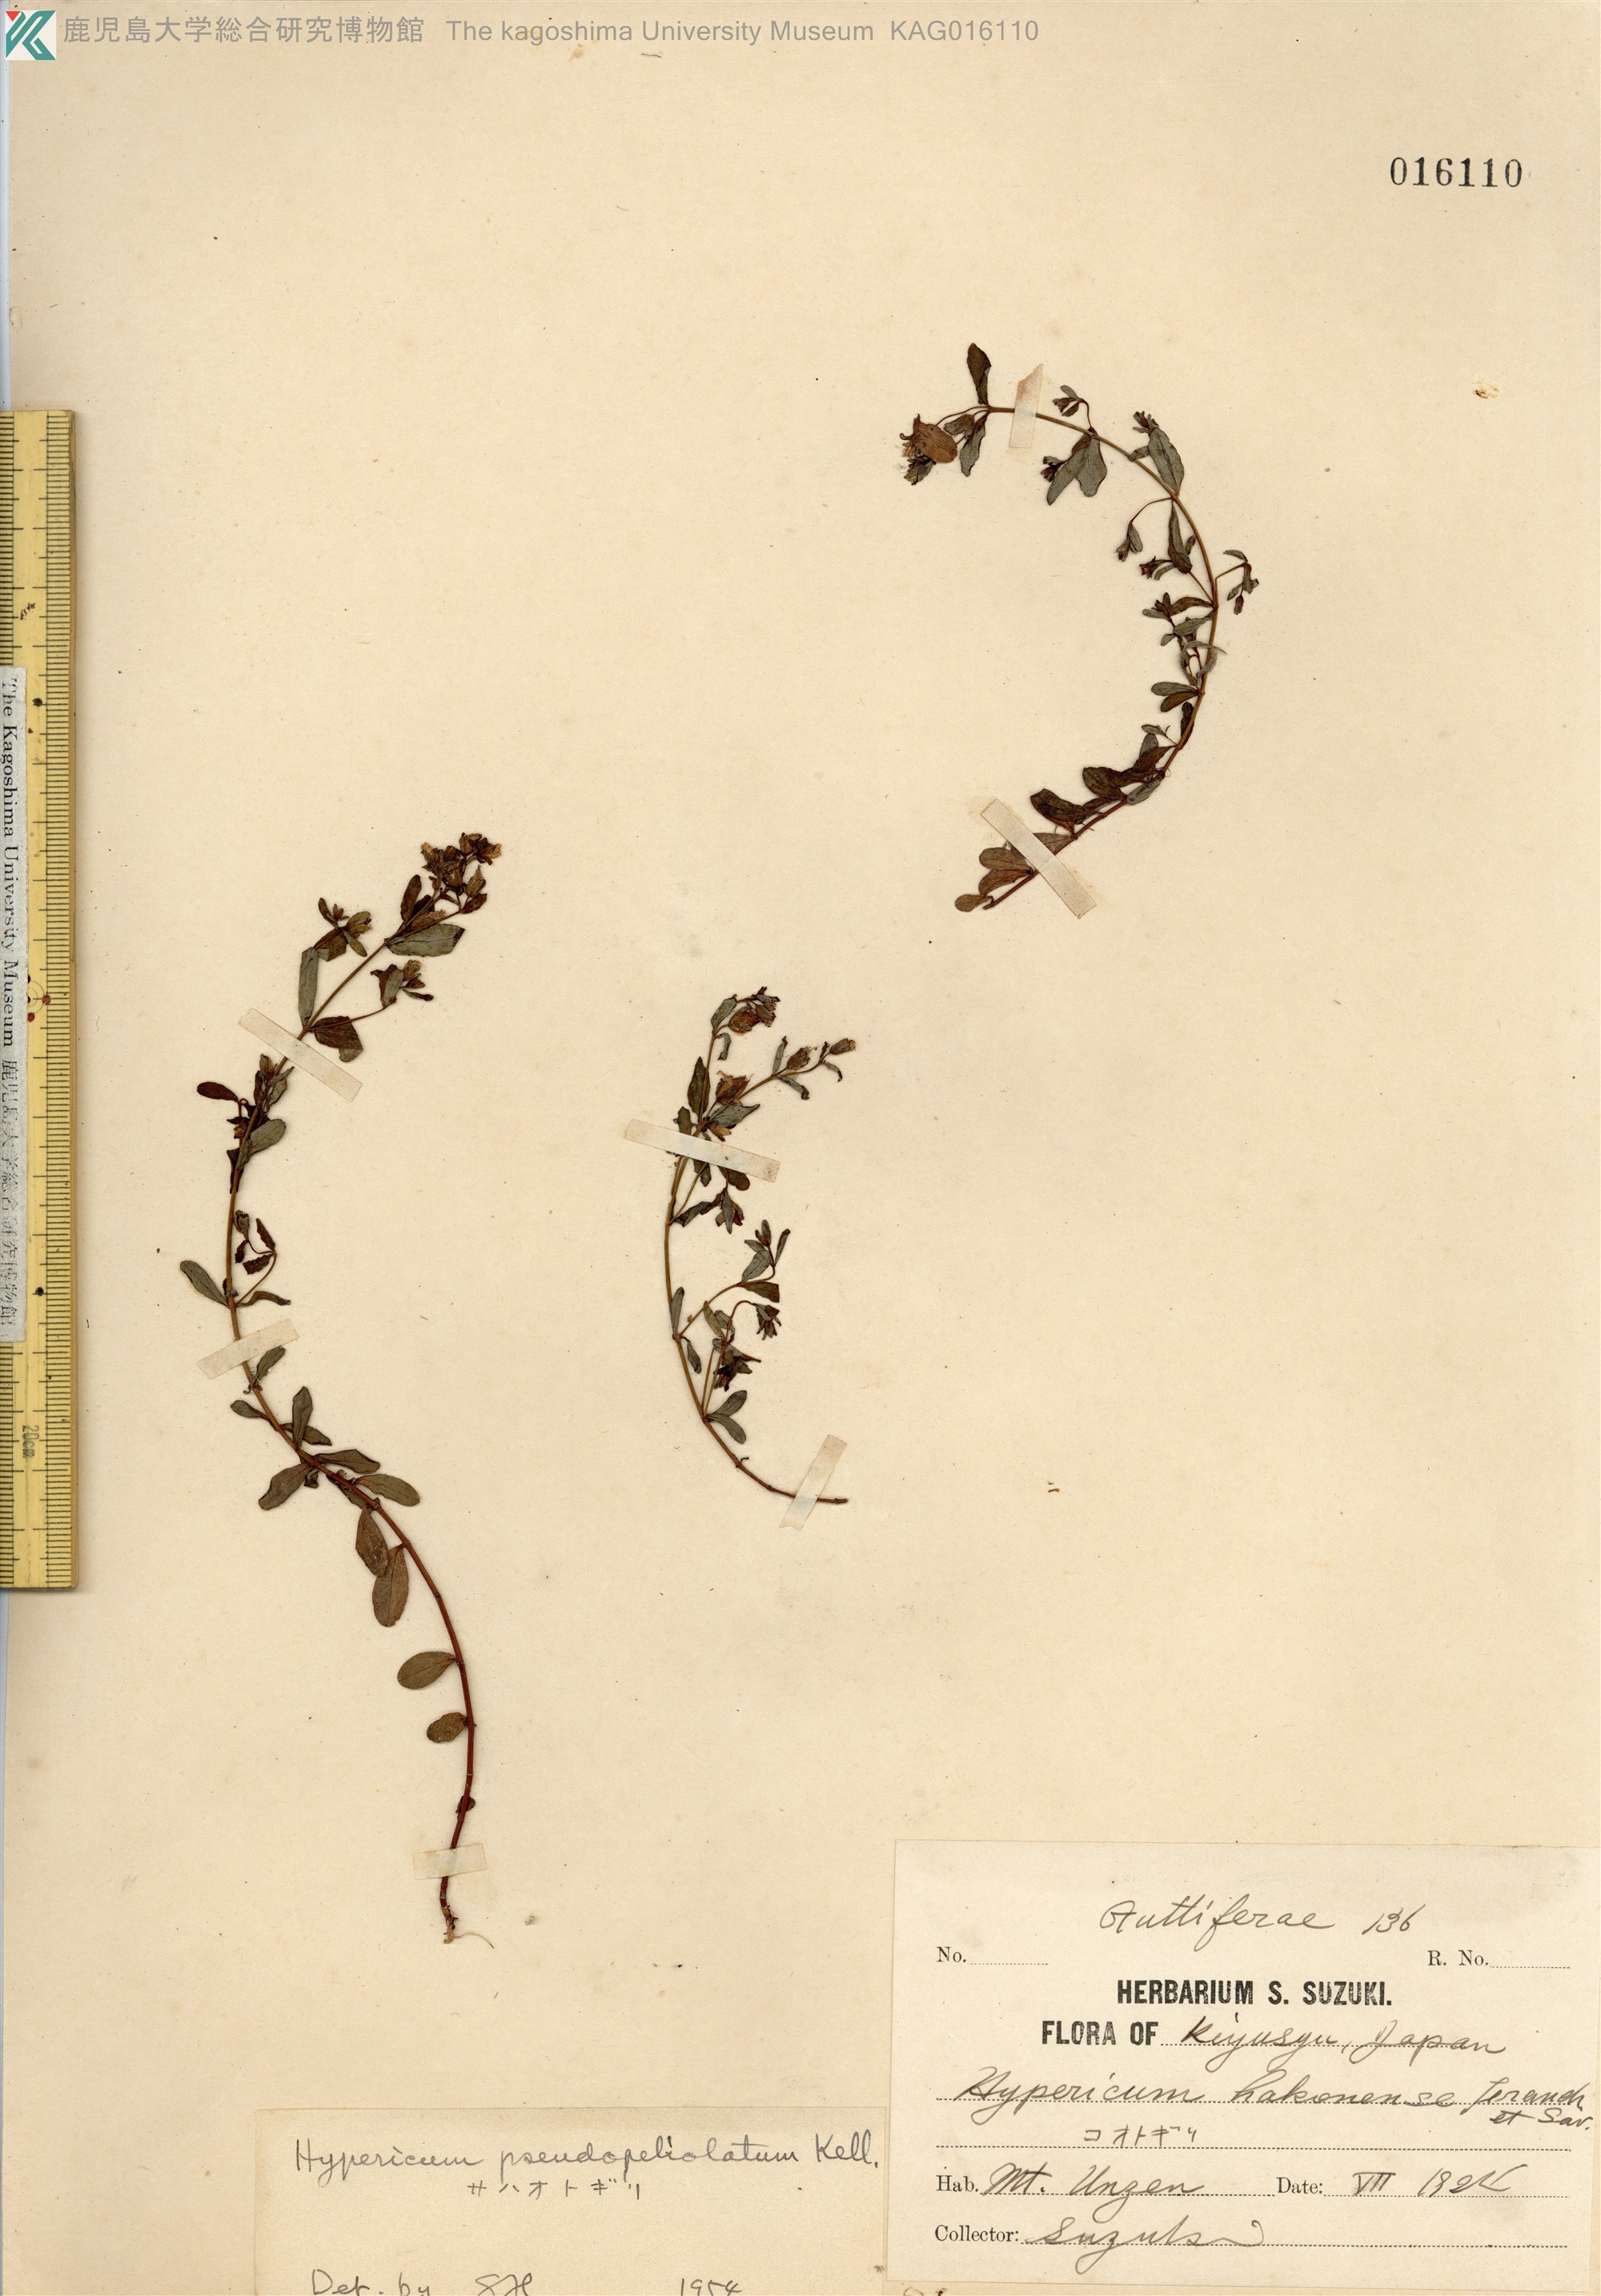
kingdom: Plantae
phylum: Tracheophyta
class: Magnoliopsida
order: Malpighiales
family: Hypericaceae
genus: Hypericum
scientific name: Hypericum pseudopetiolatum
